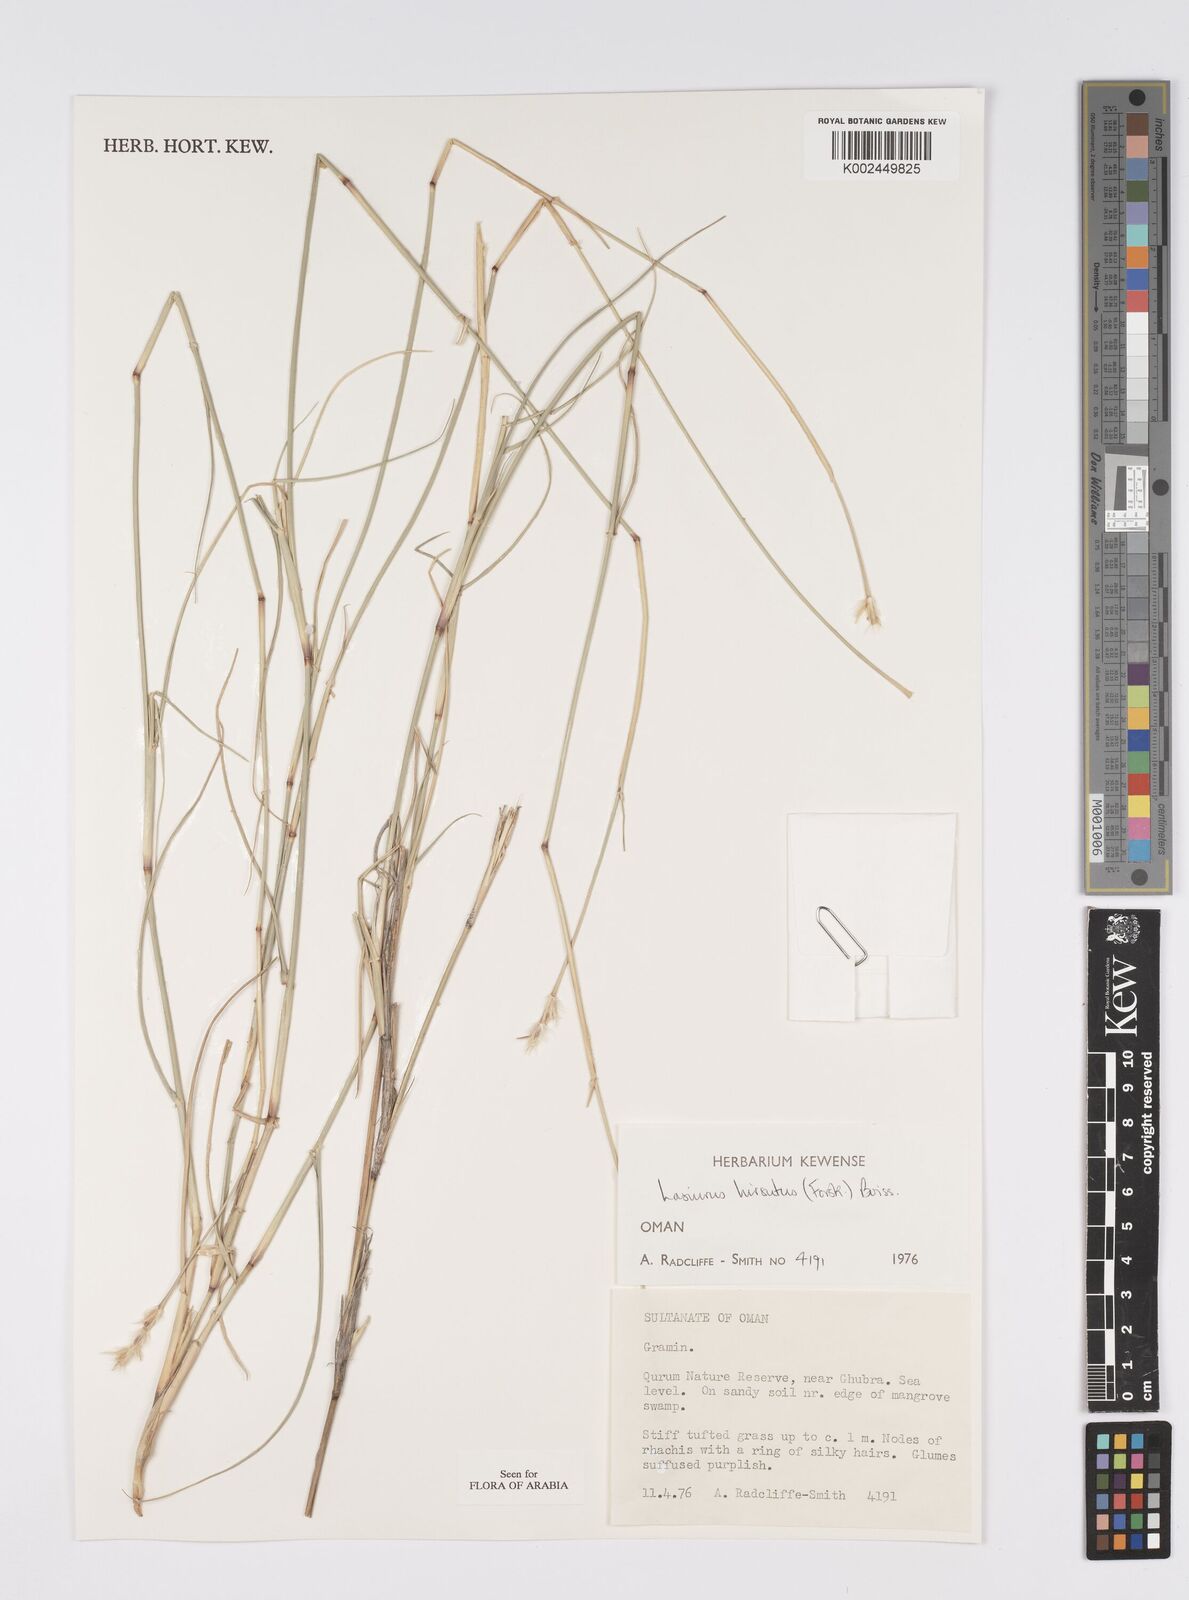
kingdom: Plantae
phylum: Tracheophyta
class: Liliopsida
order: Poales
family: Poaceae
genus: Lasiurus
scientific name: Lasiurus scindicus
